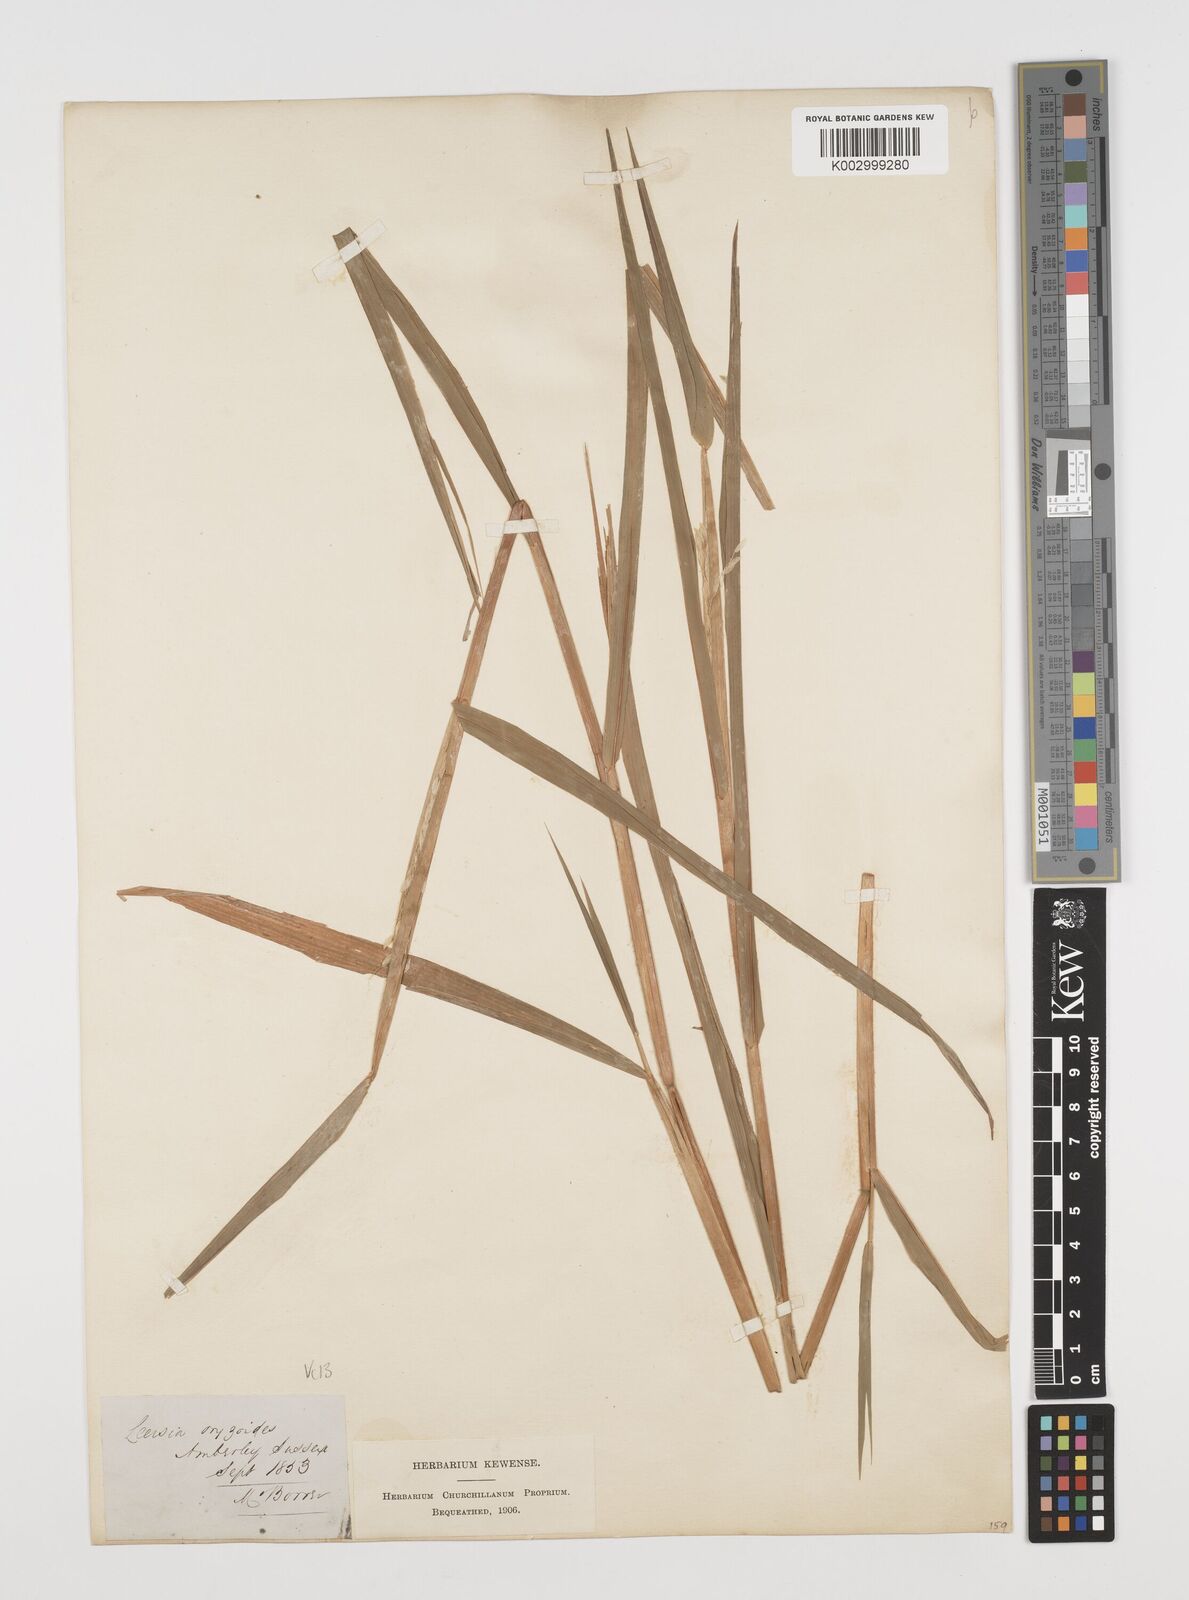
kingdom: Plantae
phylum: Tracheophyta
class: Liliopsida
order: Poales
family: Poaceae
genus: Leersia
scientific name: Leersia oryzoides
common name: Cut-grass
